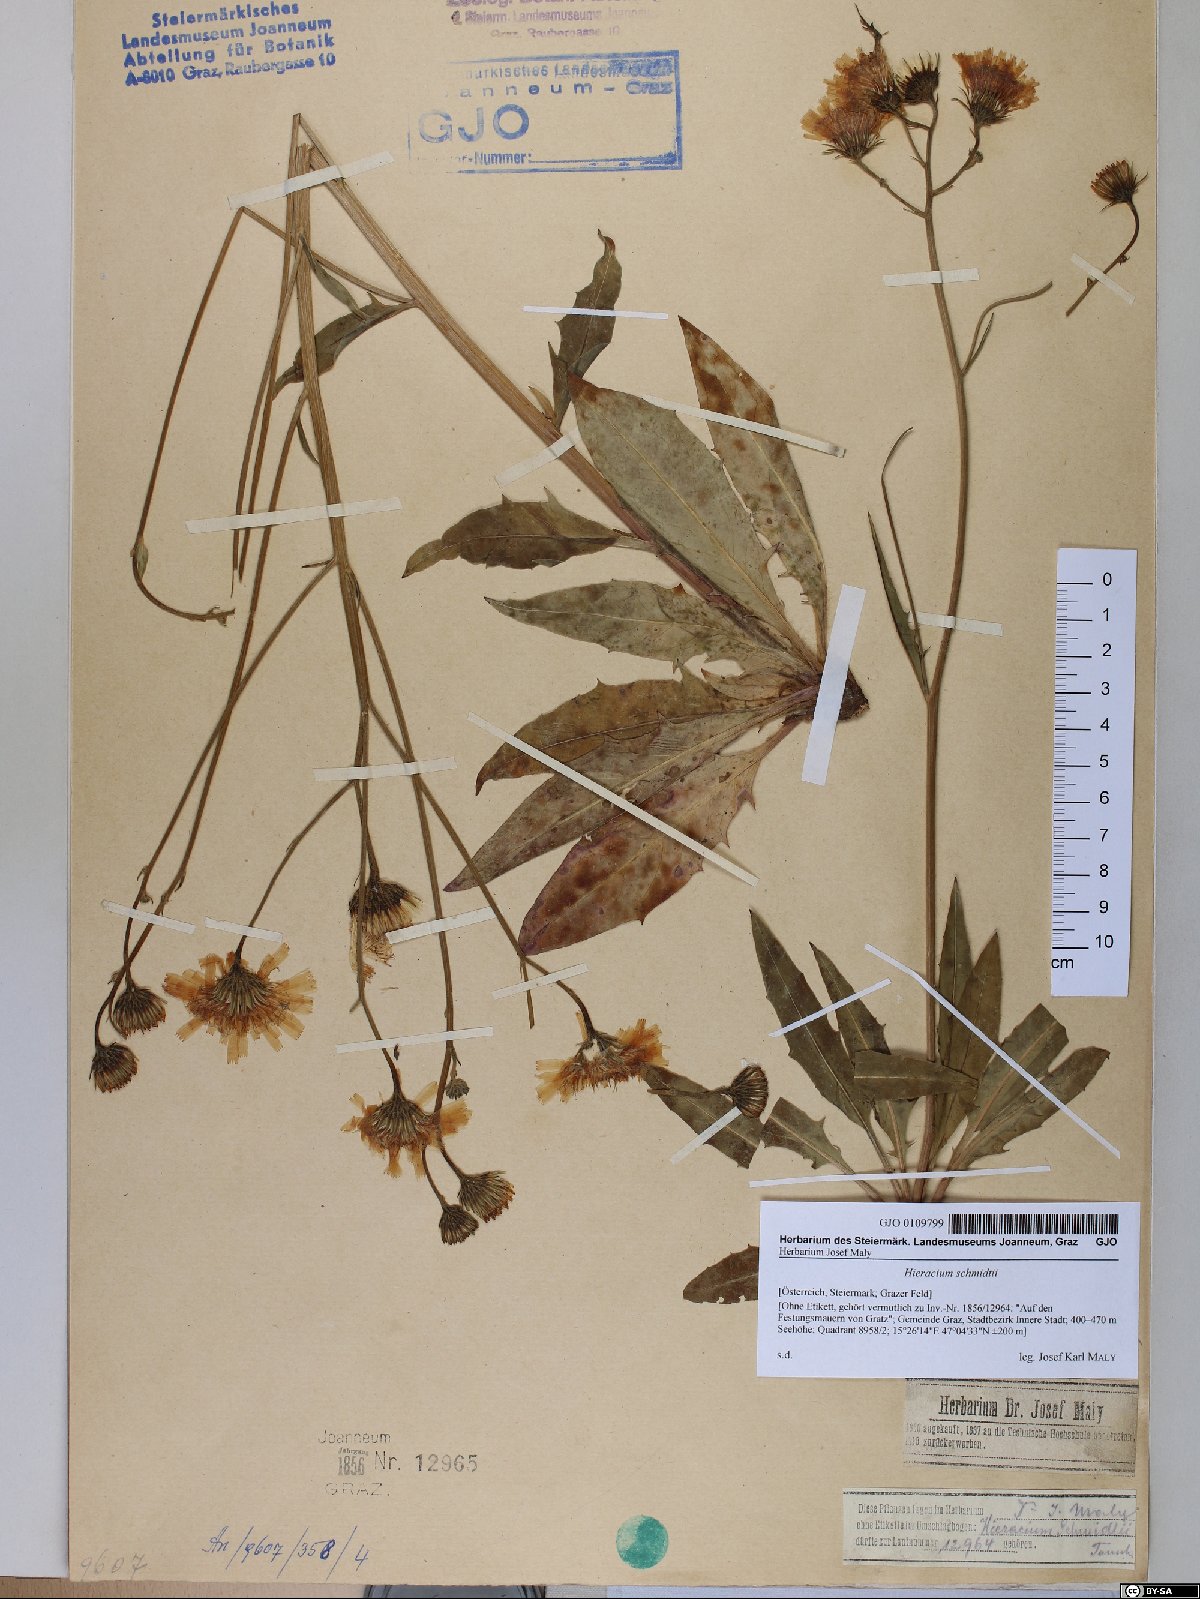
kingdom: Plantae
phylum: Tracheophyta
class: Magnoliopsida
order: Asterales
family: Asteraceae
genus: Hieracium
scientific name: Hieracium schmidtii
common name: Schmidt's hawkweed
